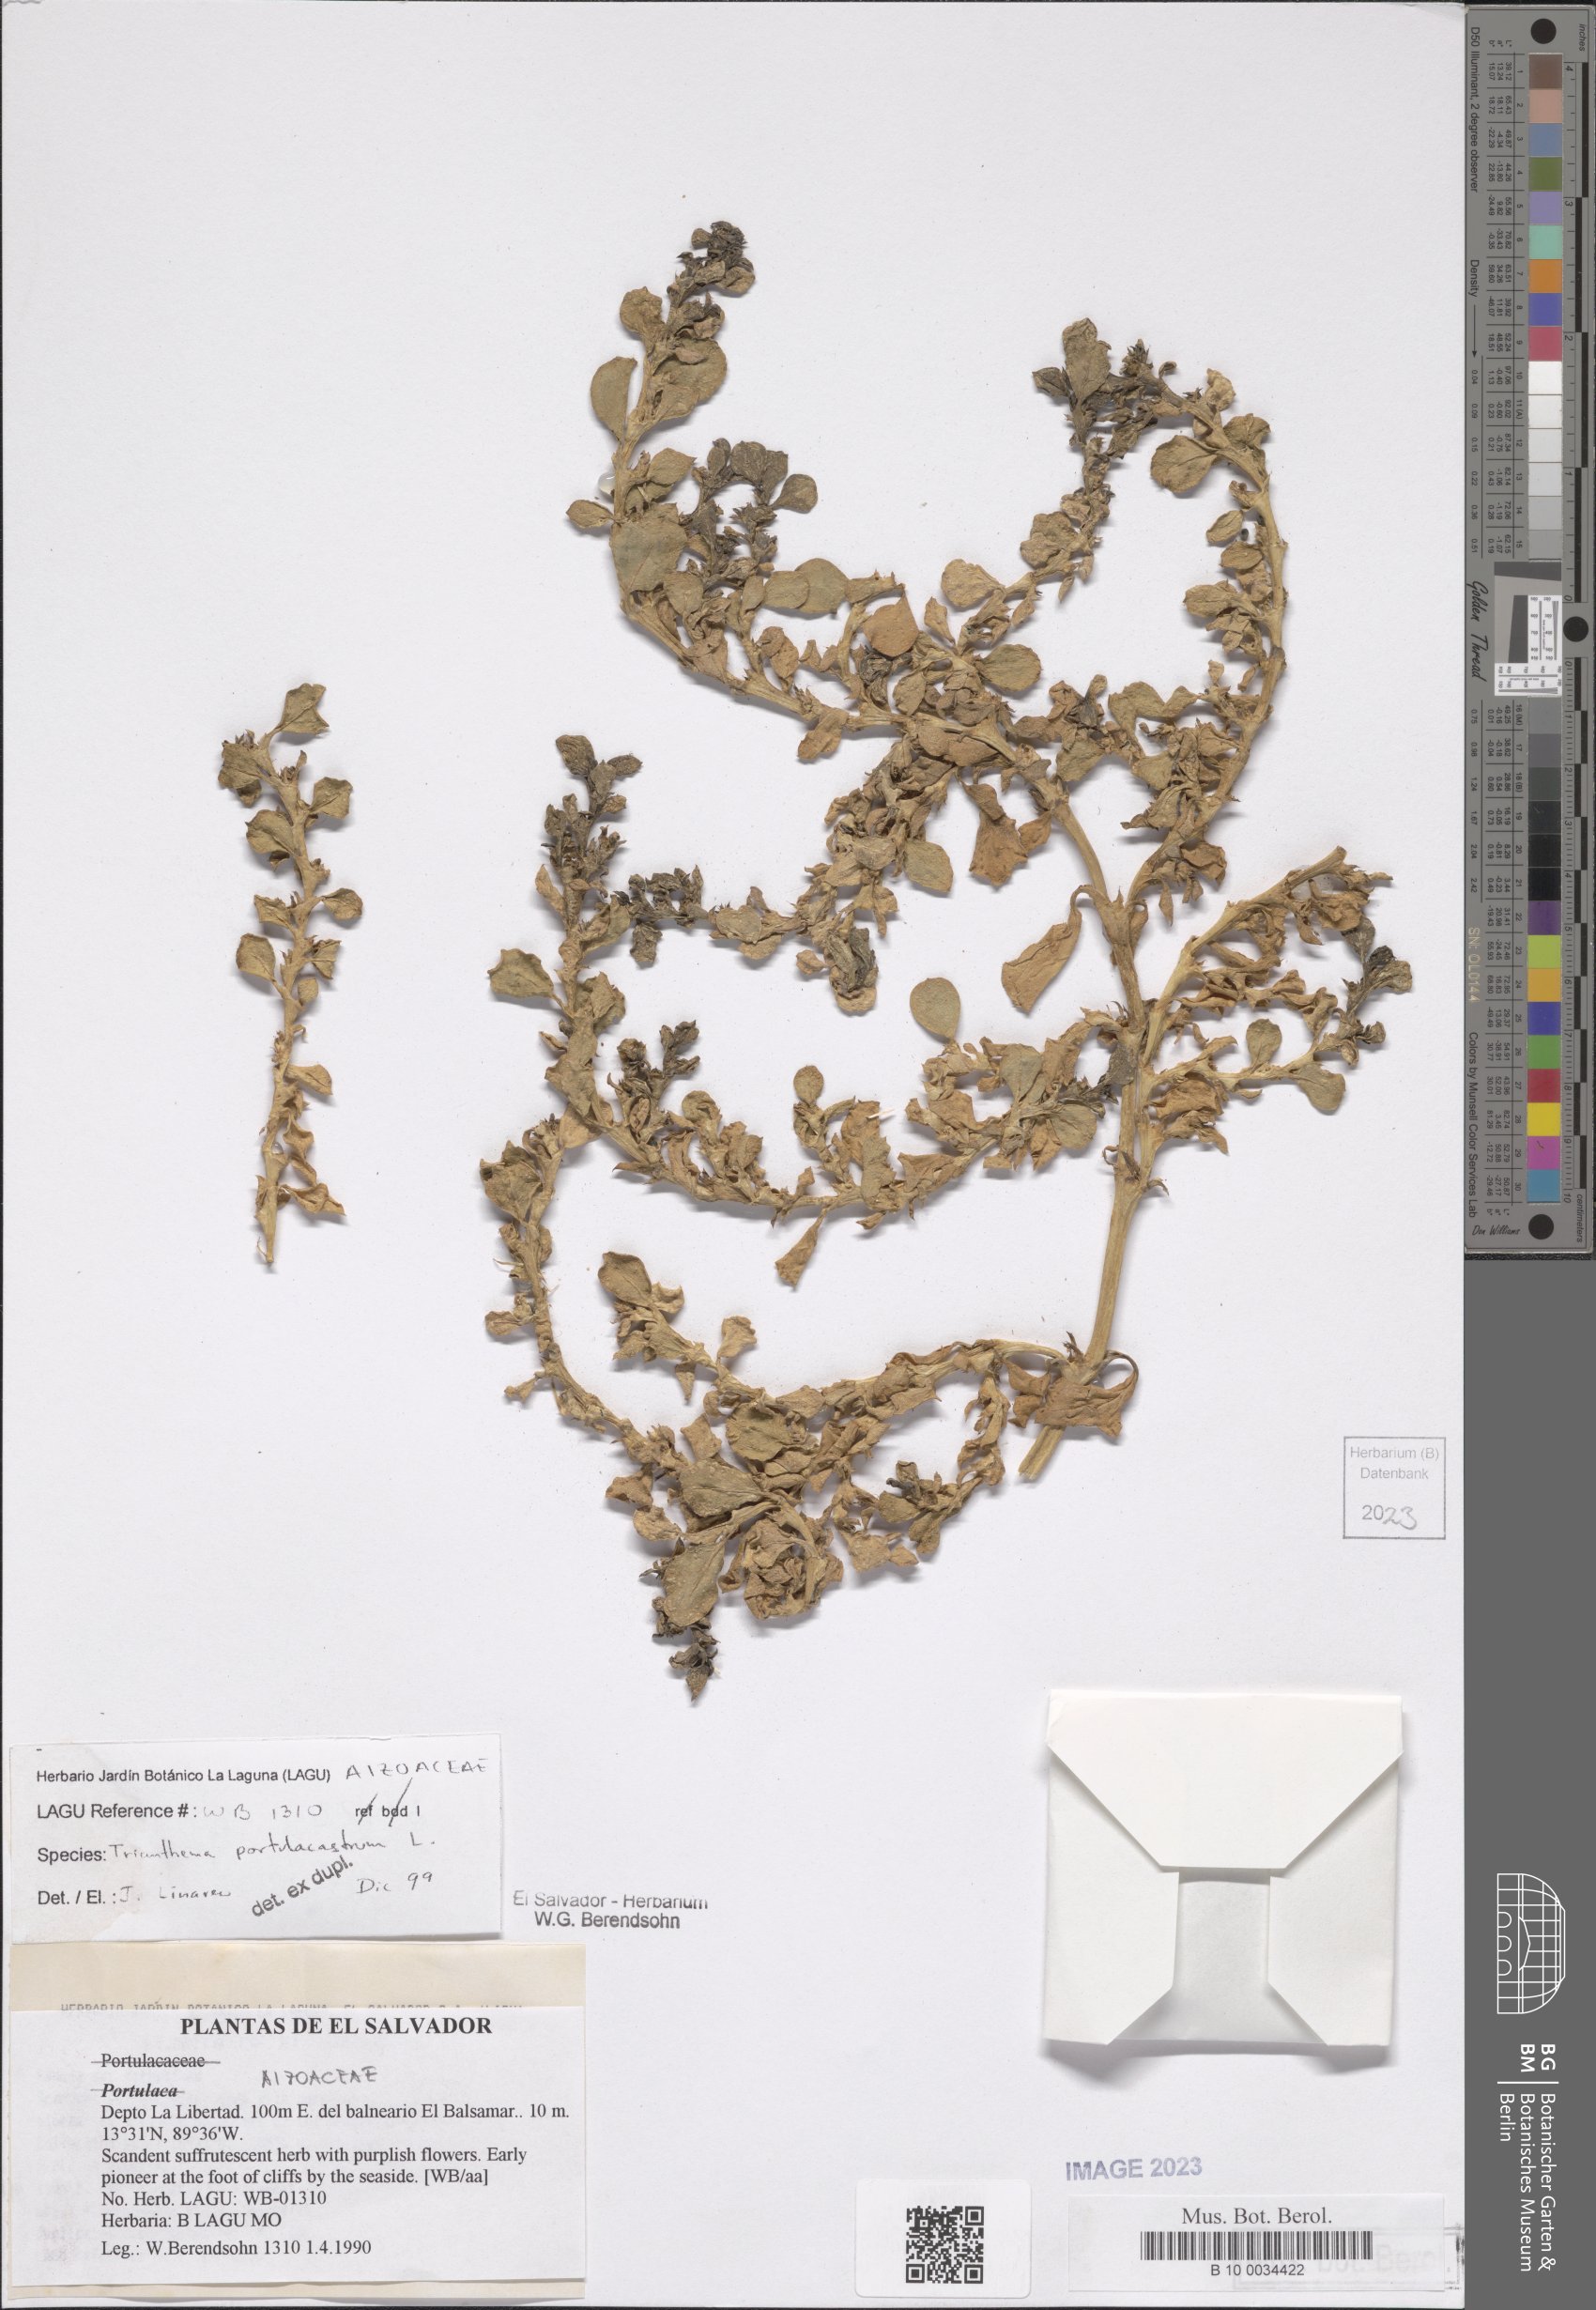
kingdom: Plantae
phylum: Tracheophyta
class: Magnoliopsida
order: Caryophyllales
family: Aizoaceae
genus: Trianthema
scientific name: Trianthema portulacastrum
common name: Desert horsepurslane
